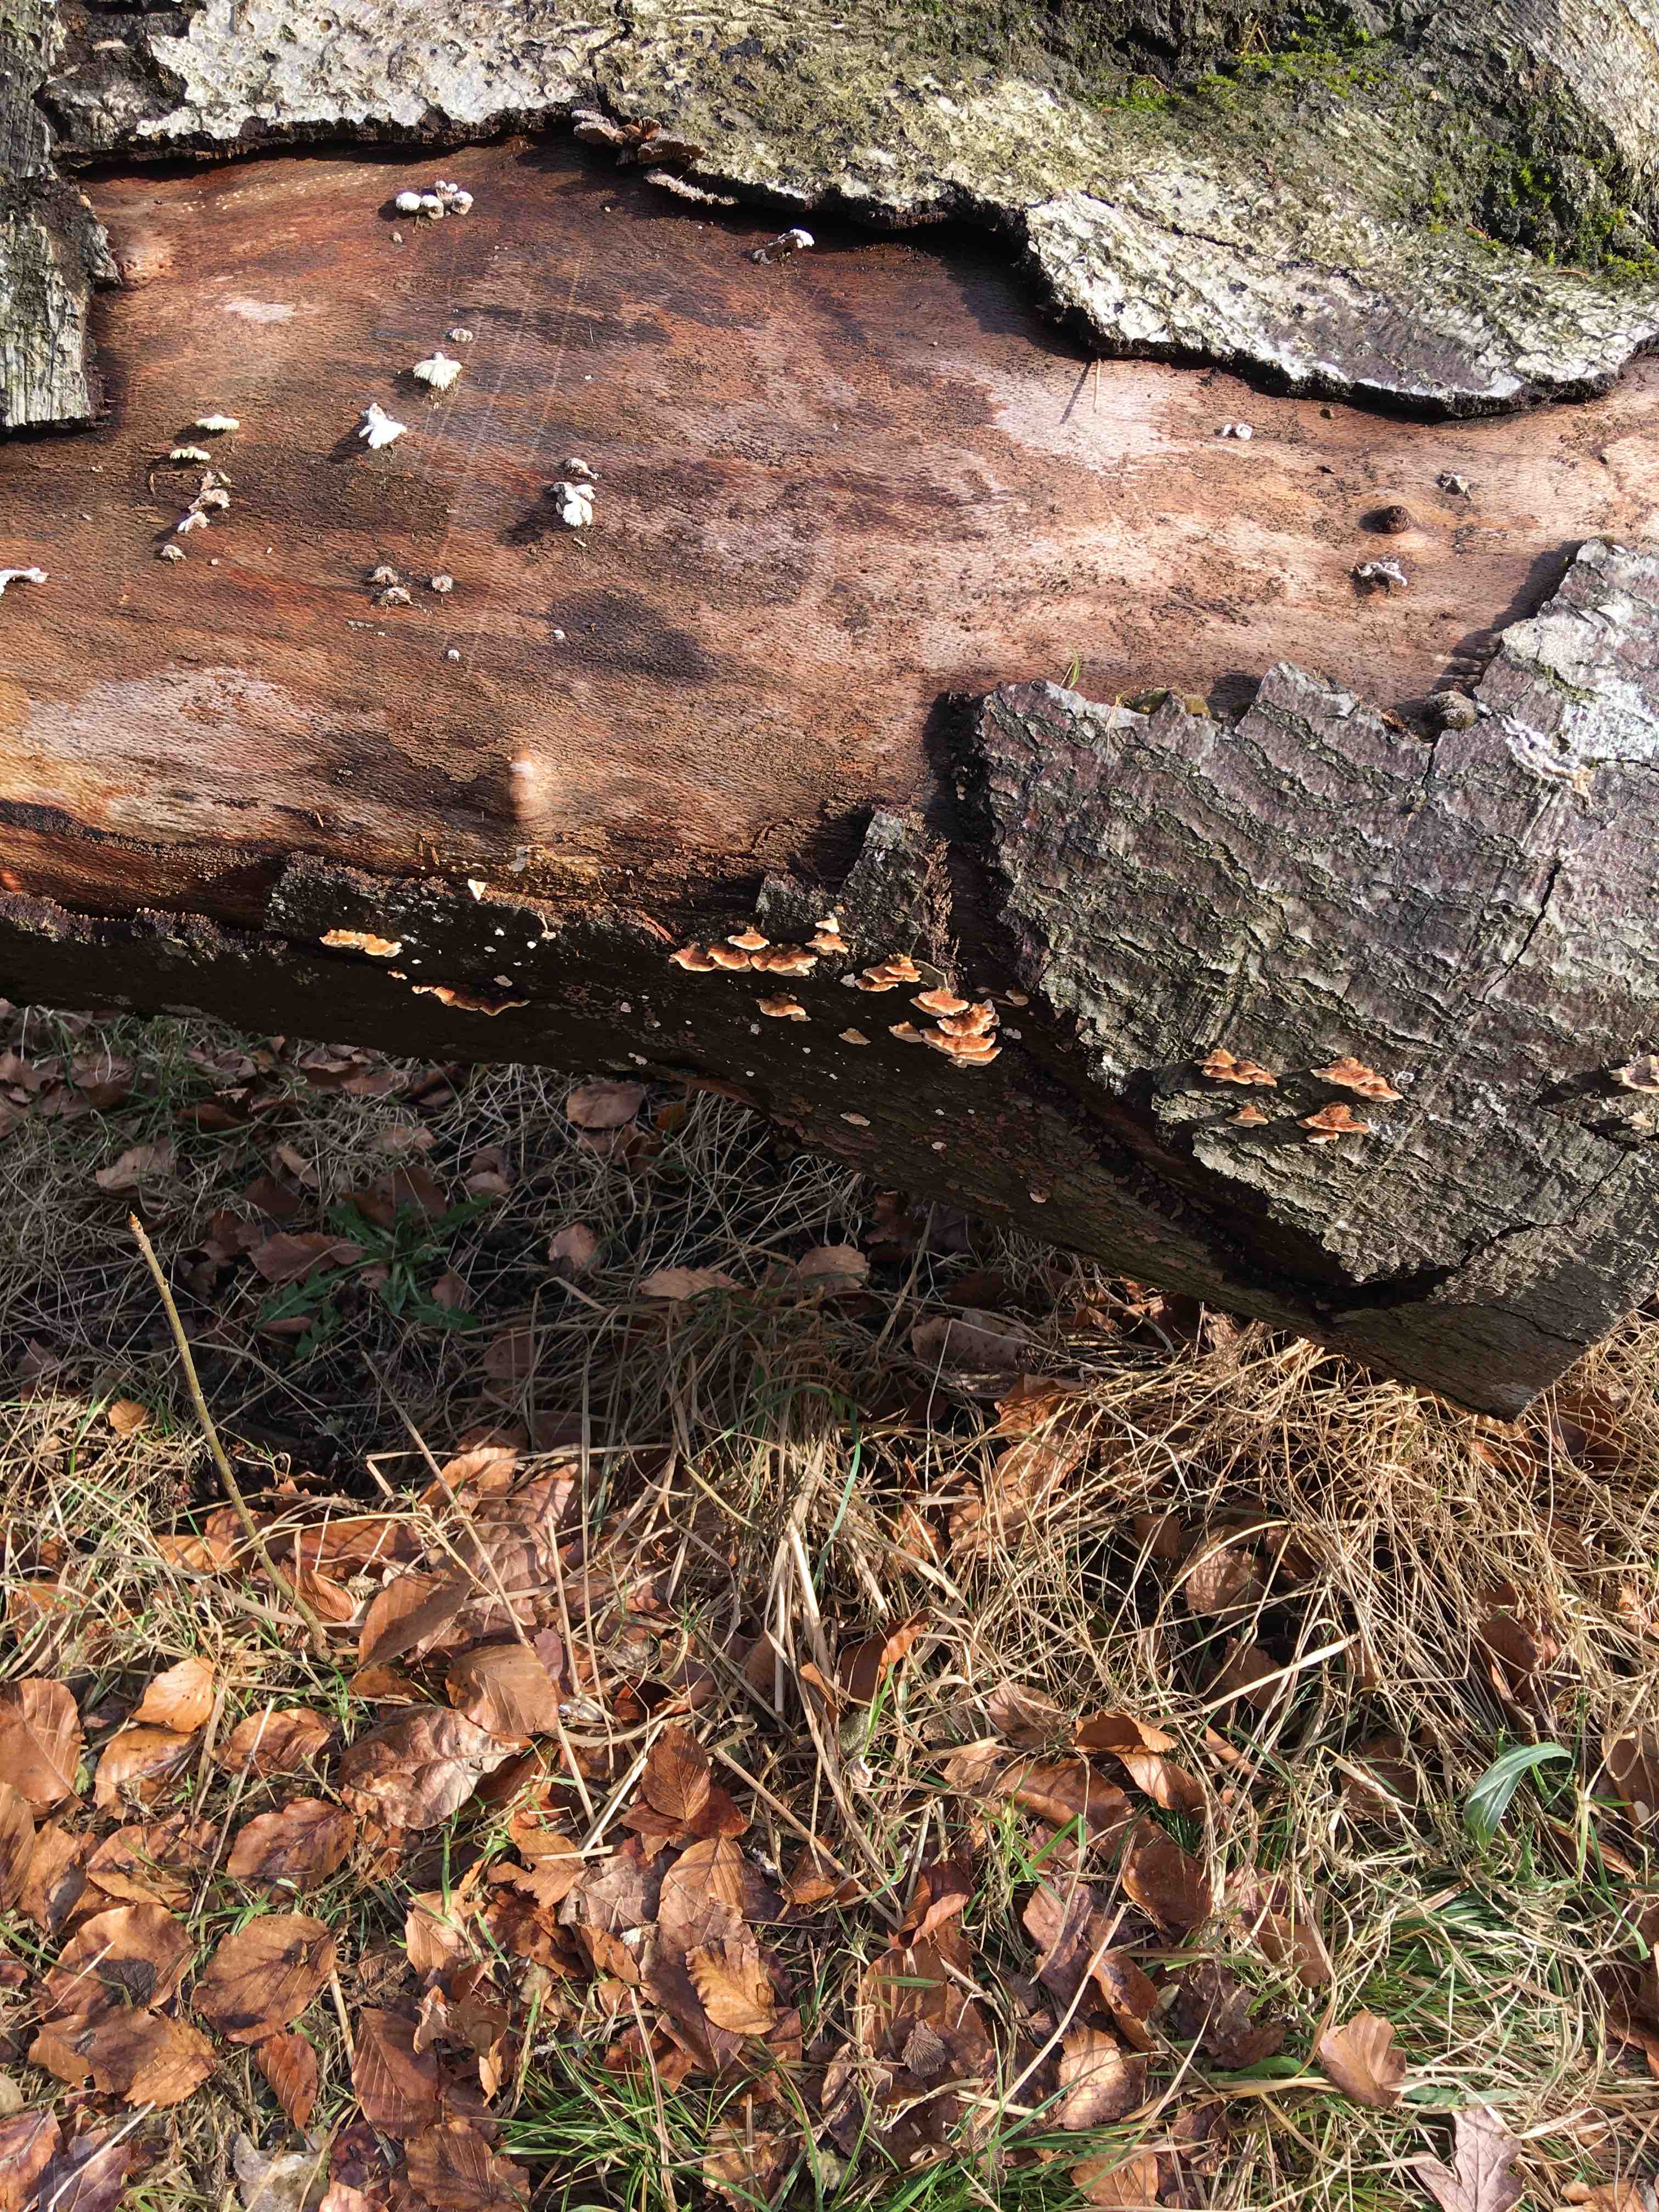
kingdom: Fungi
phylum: Basidiomycota
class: Agaricomycetes
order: Polyporales
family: Polyporaceae
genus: Trametes
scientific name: Trametes versicolor
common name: broget læderporesvamp
